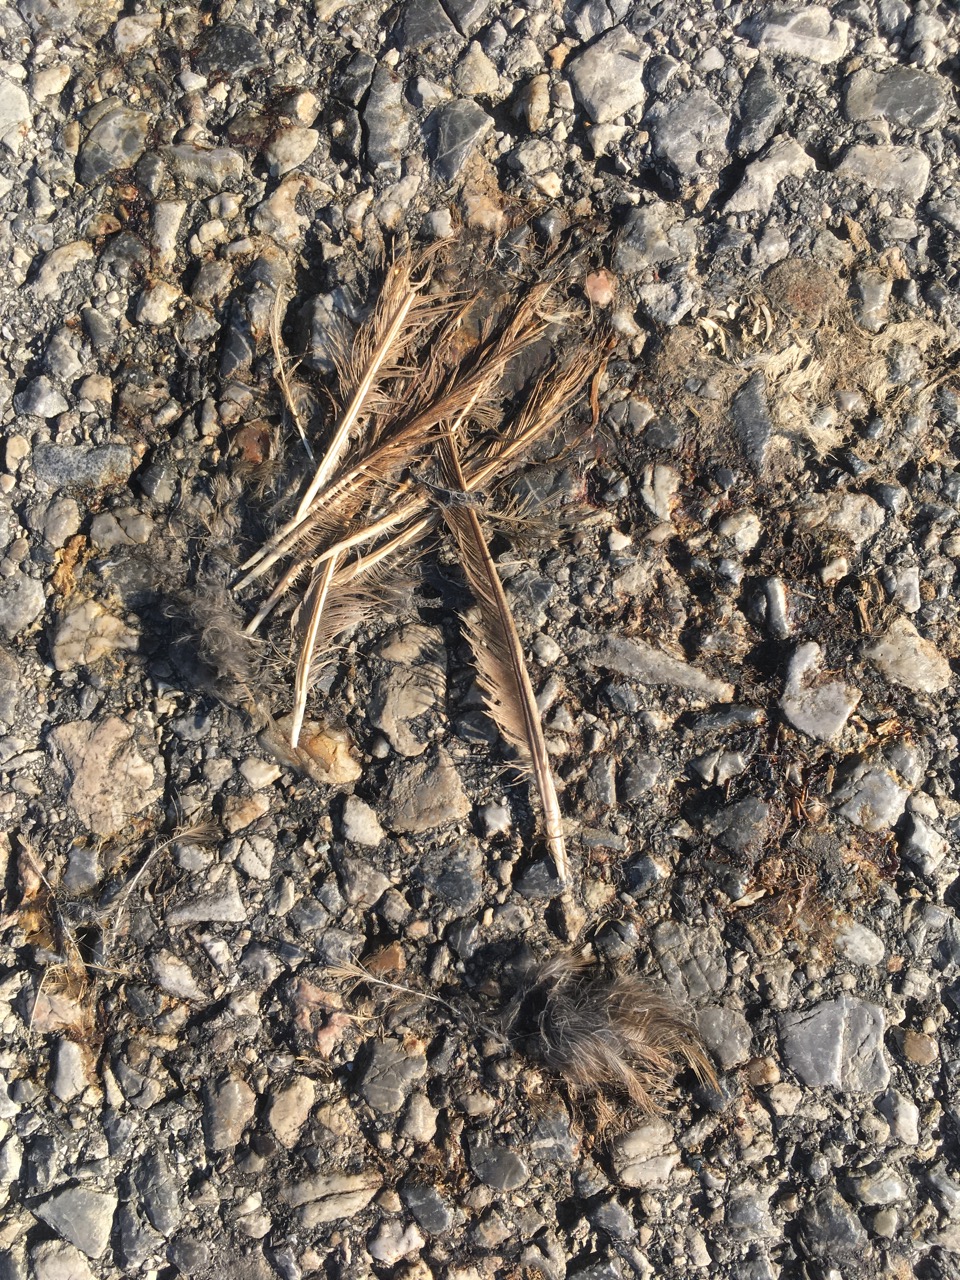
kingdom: Animalia
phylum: Chordata
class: Aves
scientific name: Aves
